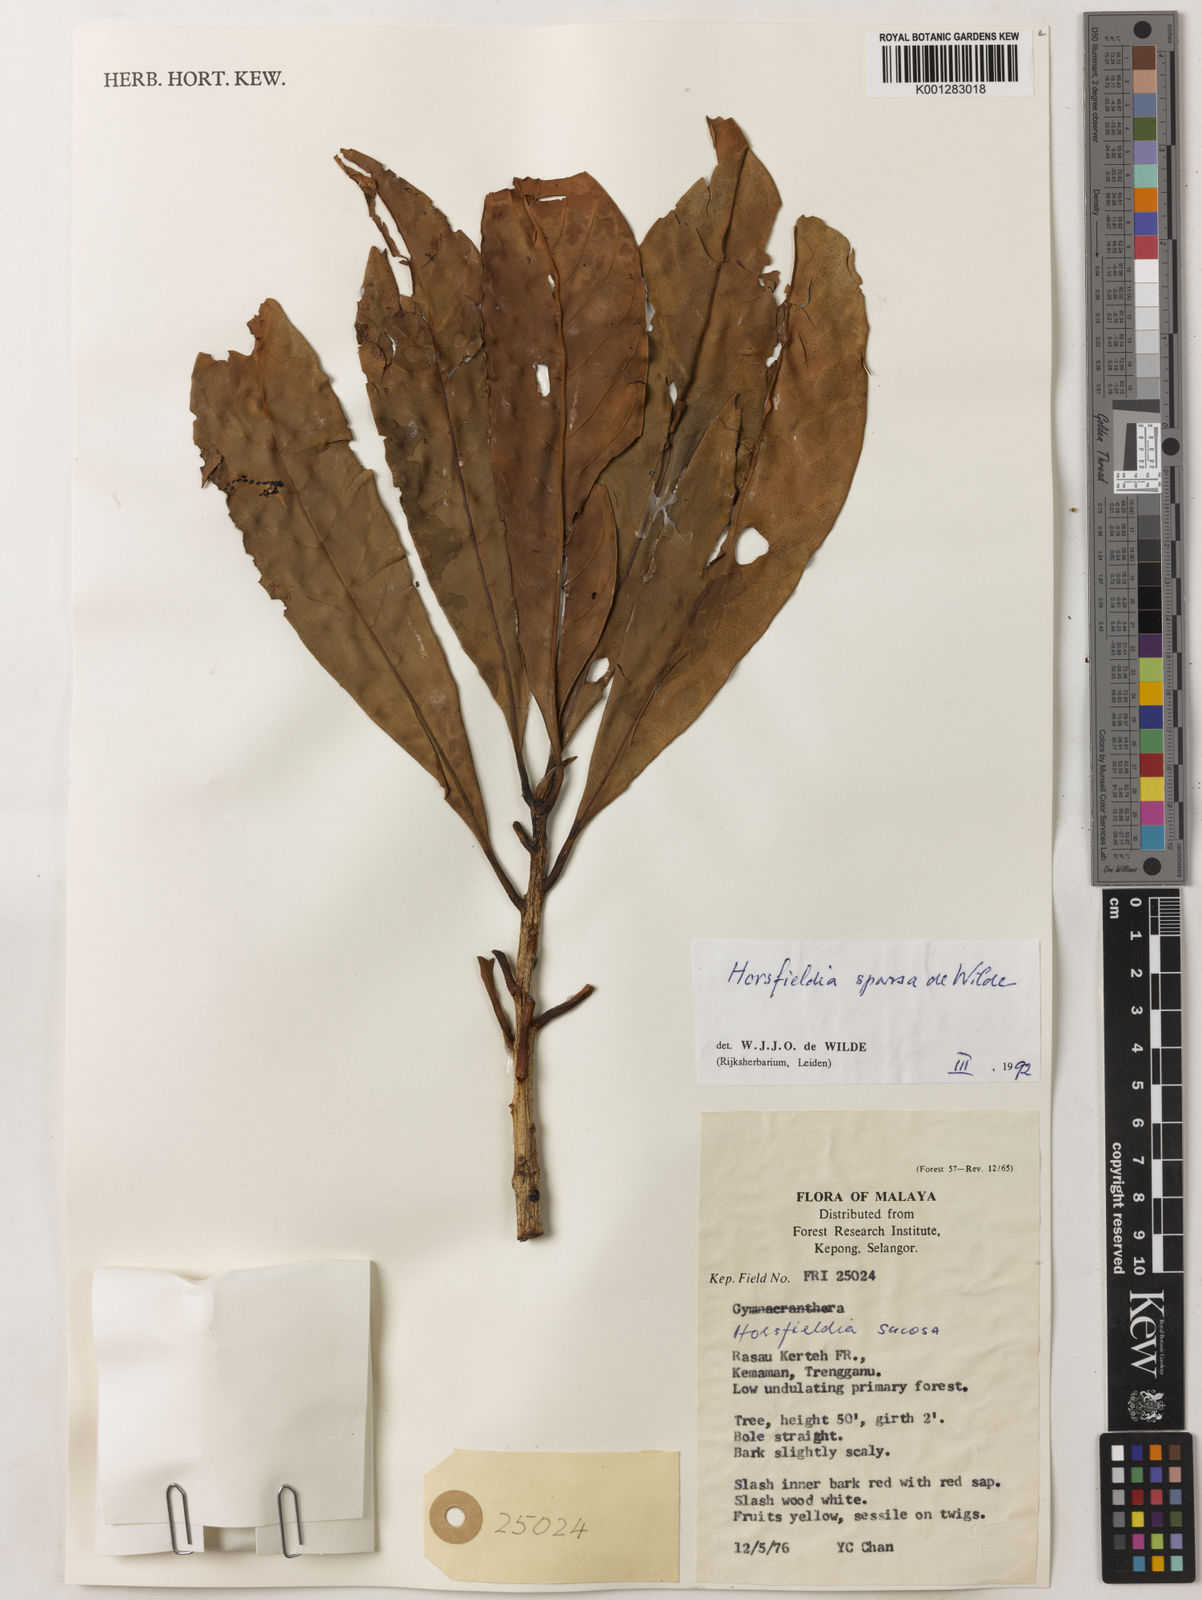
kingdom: Plantae
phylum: Tracheophyta
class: Magnoliopsida
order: Magnoliales
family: Myristicaceae
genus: Horsfieldia
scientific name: Horsfieldia sparsa
